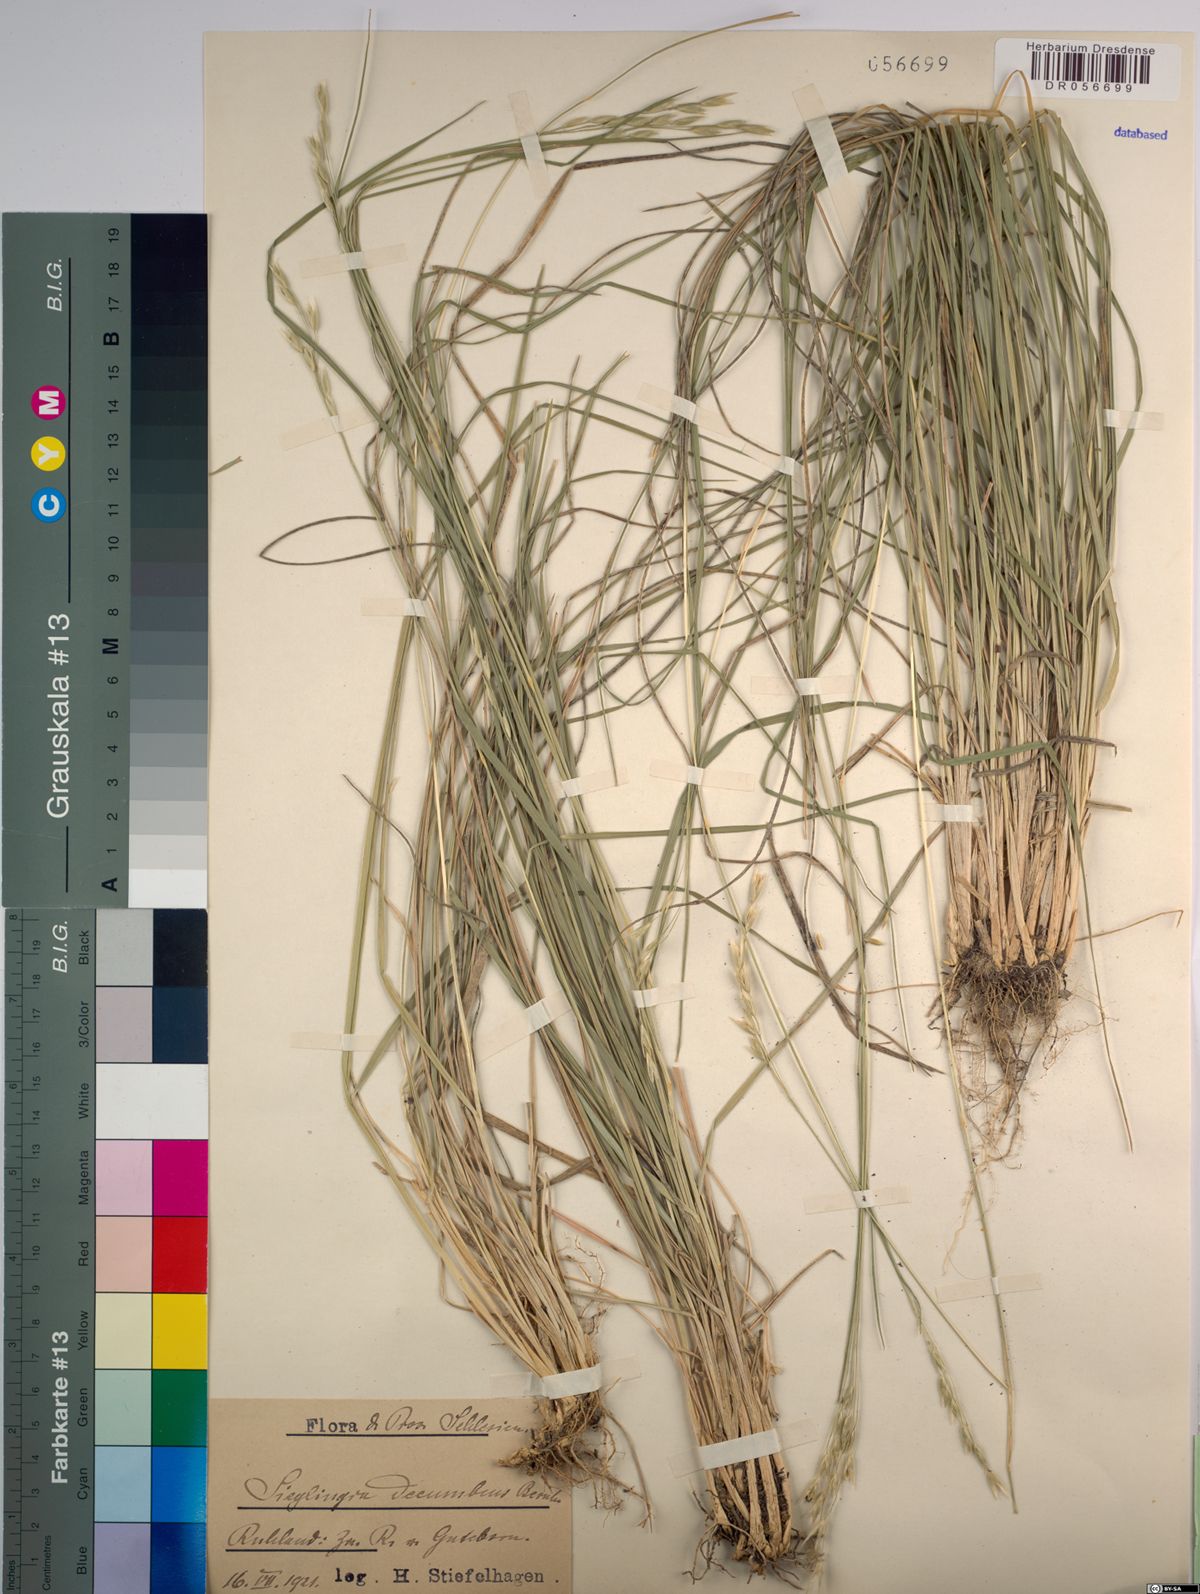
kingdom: Plantae
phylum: Tracheophyta
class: Liliopsida
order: Poales
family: Poaceae
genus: Danthonia
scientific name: Danthonia decumbens
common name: Common heathgrass
